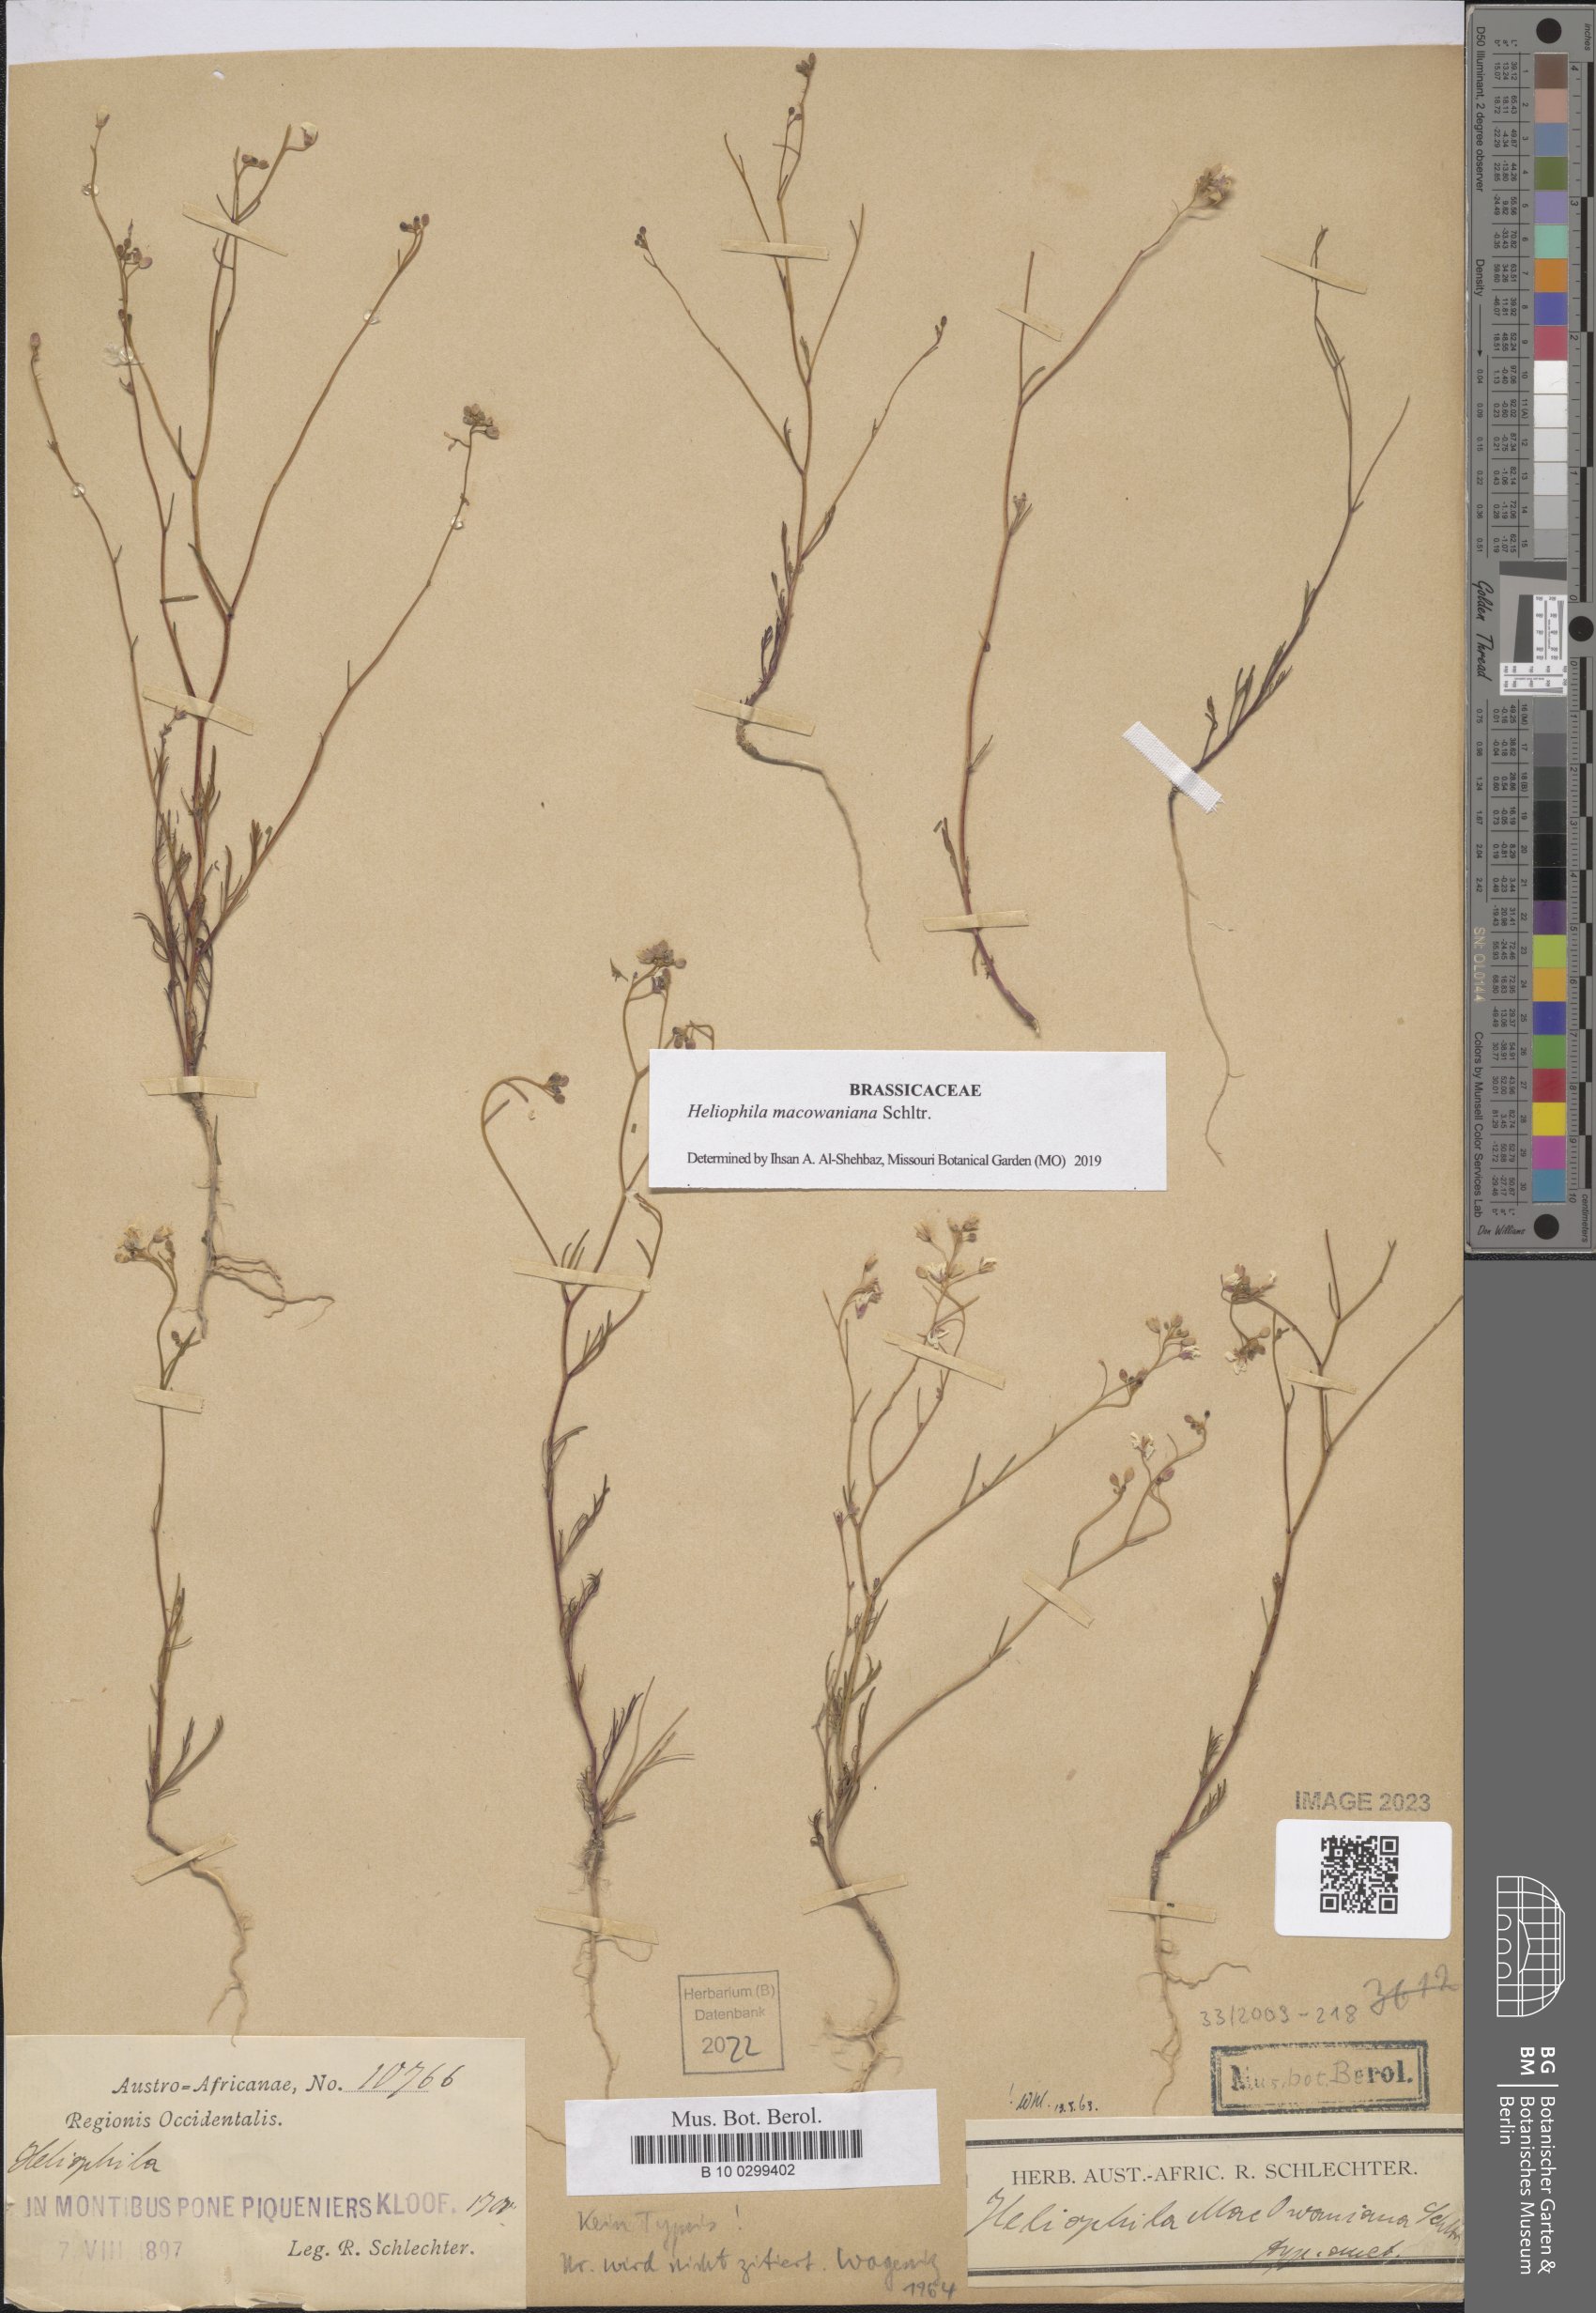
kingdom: Plantae
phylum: Tracheophyta
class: Magnoliopsida
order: Brassicales
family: Brassicaceae
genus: Heliophila
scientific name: Heliophila macowaniana
